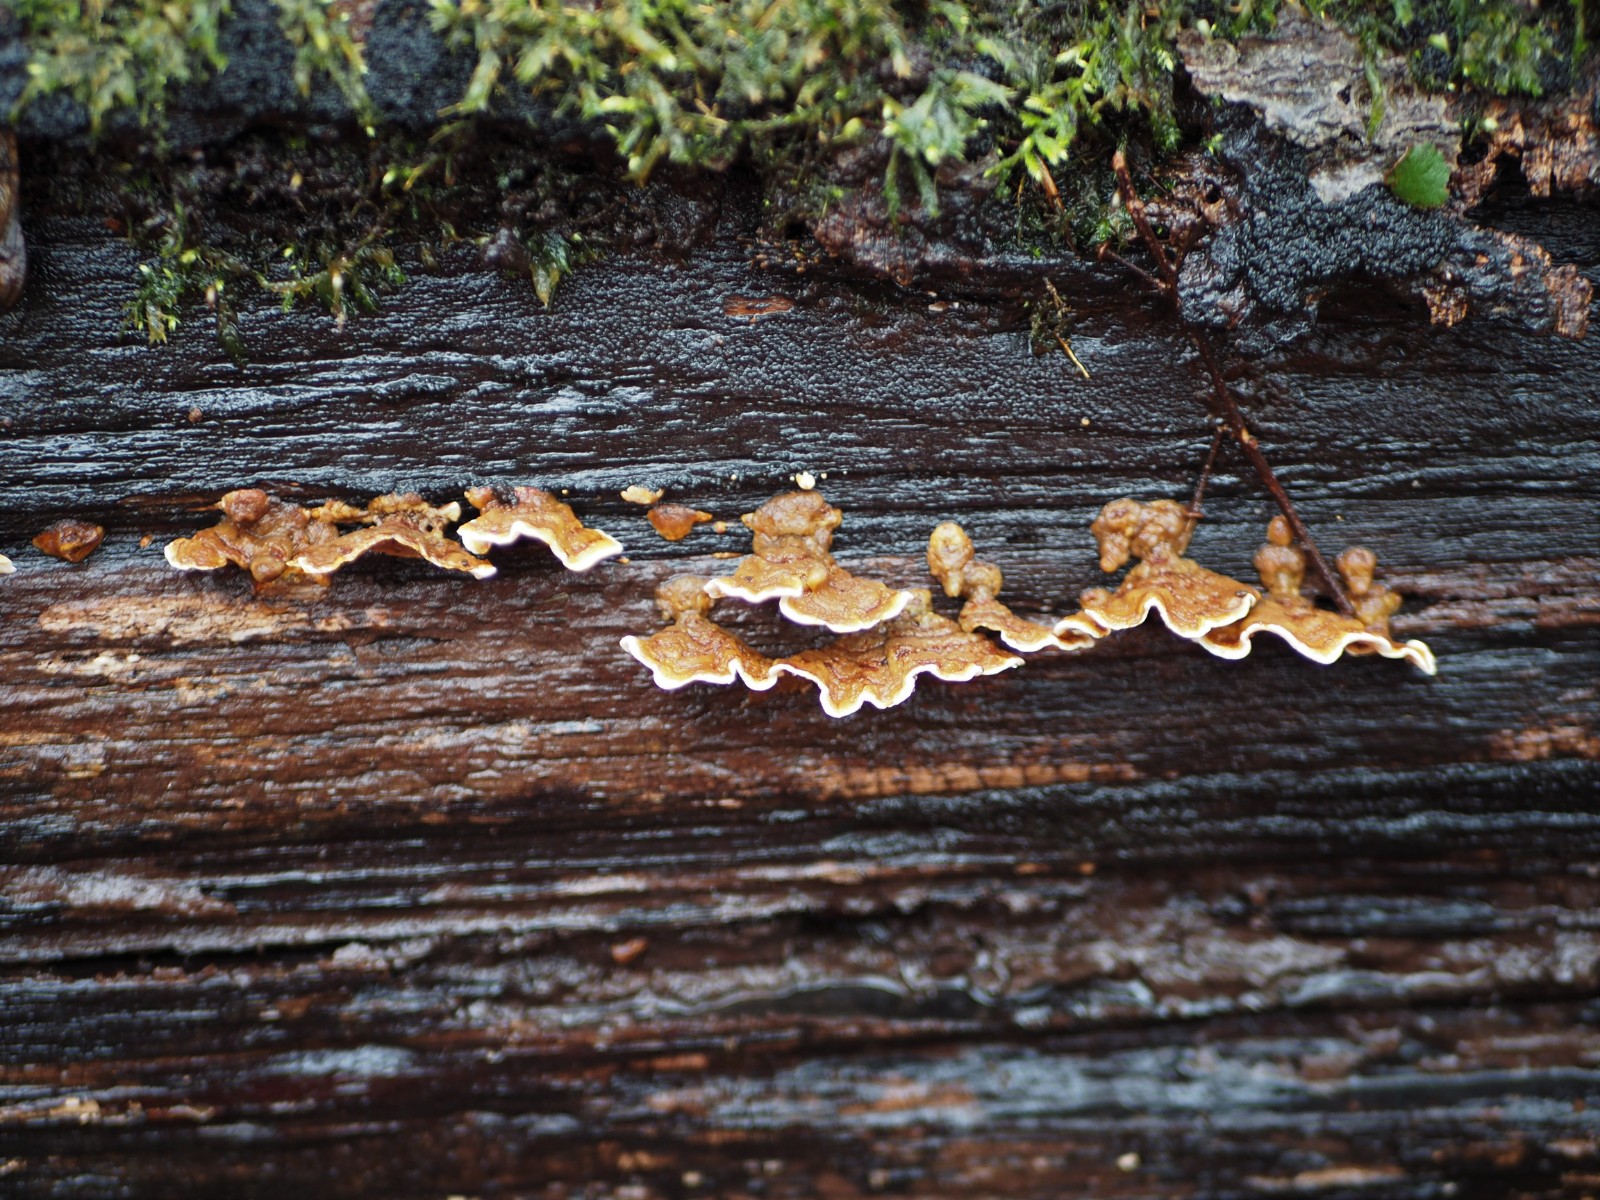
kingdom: Fungi
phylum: Basidiomycota
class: Agaricomycetes
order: Russulales
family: Stereaceae
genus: Stereum
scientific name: Stereum subtomentosum
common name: smuk lædersvamp
